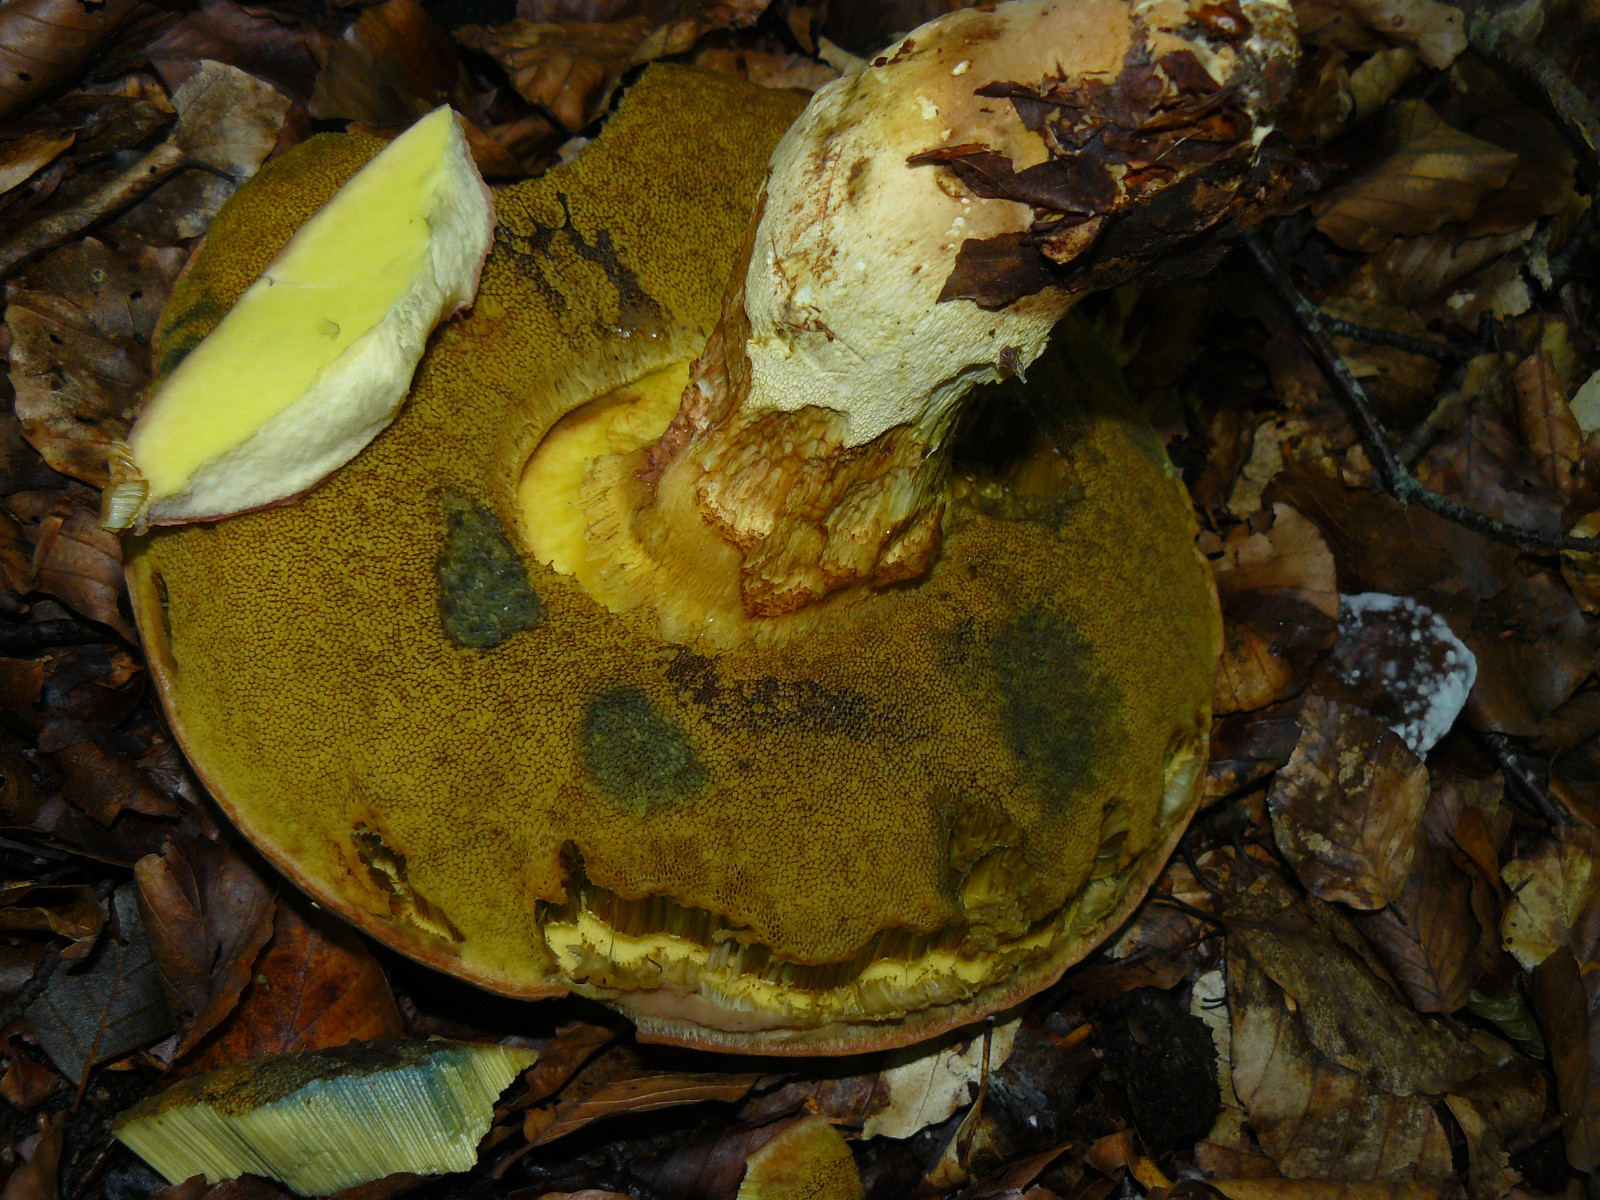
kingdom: Fungi
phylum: Basidiomycota
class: Agaricomycetes
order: Boletales
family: Boletaceae
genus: Butyriboletus
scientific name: Butyriboletus appendiculatus
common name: tenstokket rørhat
